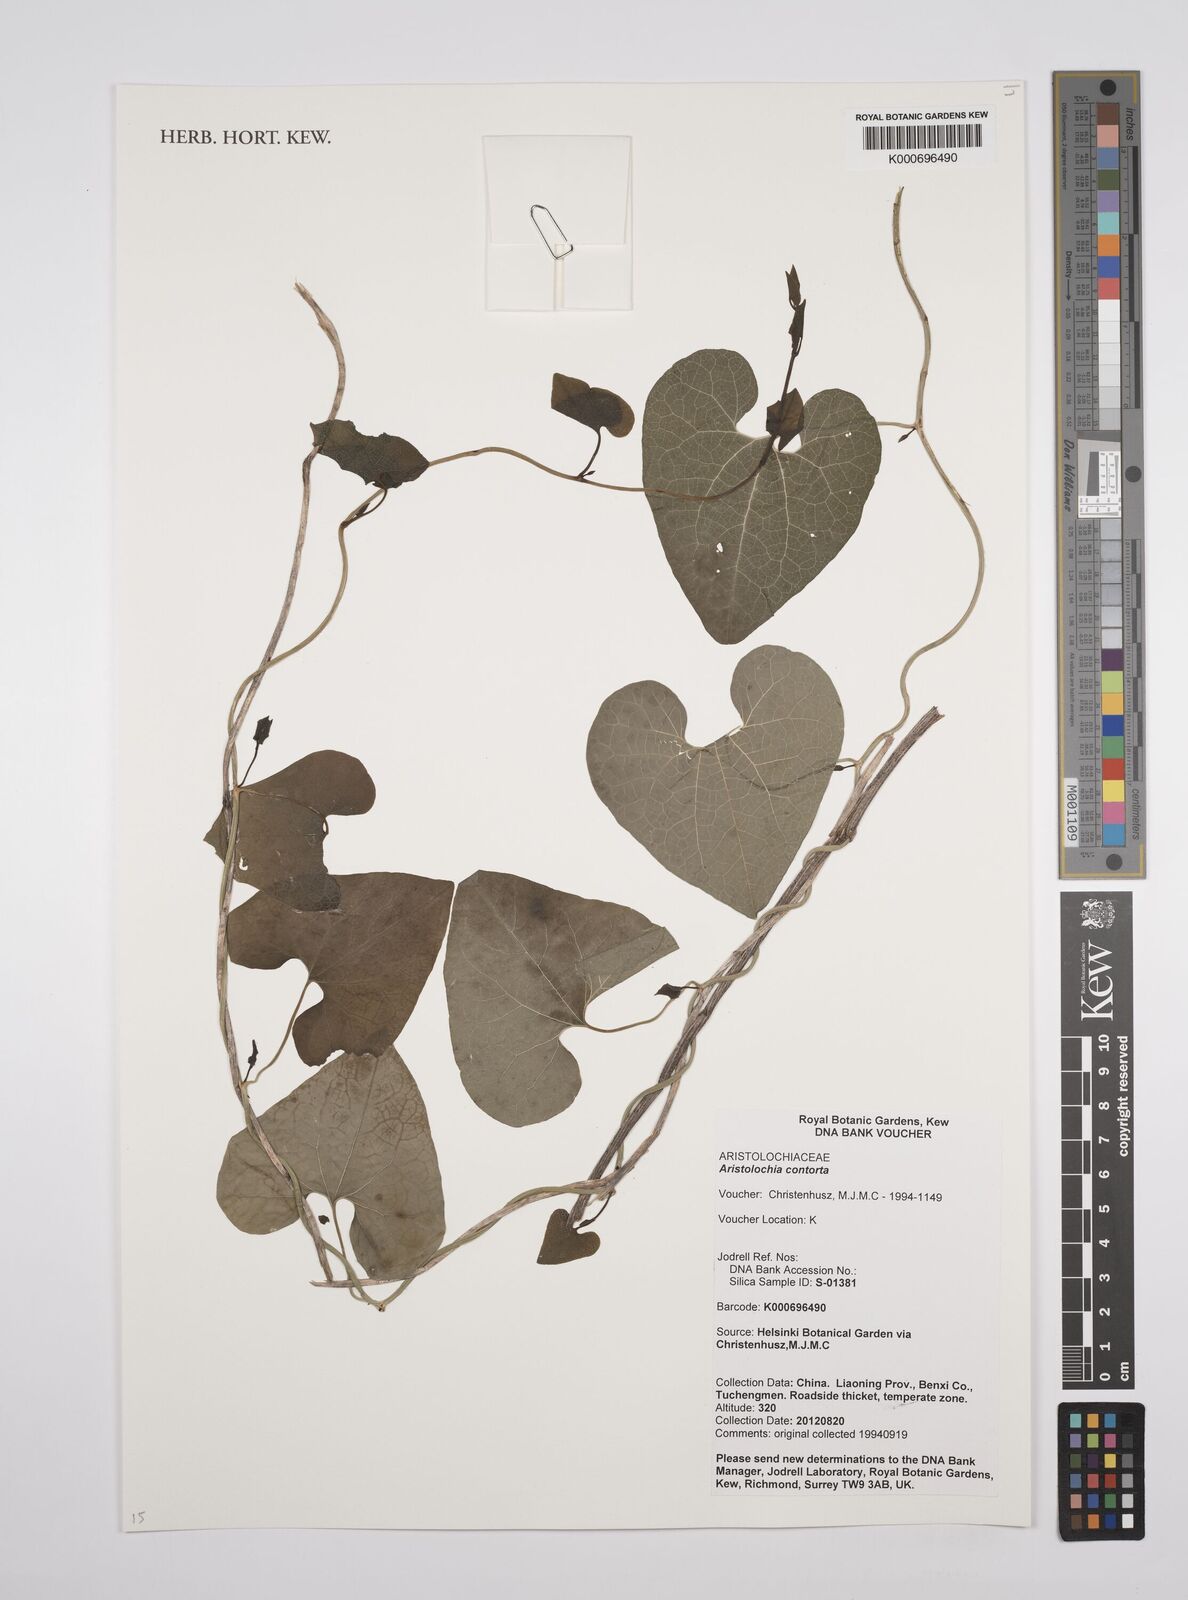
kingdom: Plantae
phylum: Tracheophyta
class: Magnoliopsida
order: Piperales
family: Aristolochiaceae
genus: Aristolochia
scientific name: Aristolochia contorta
